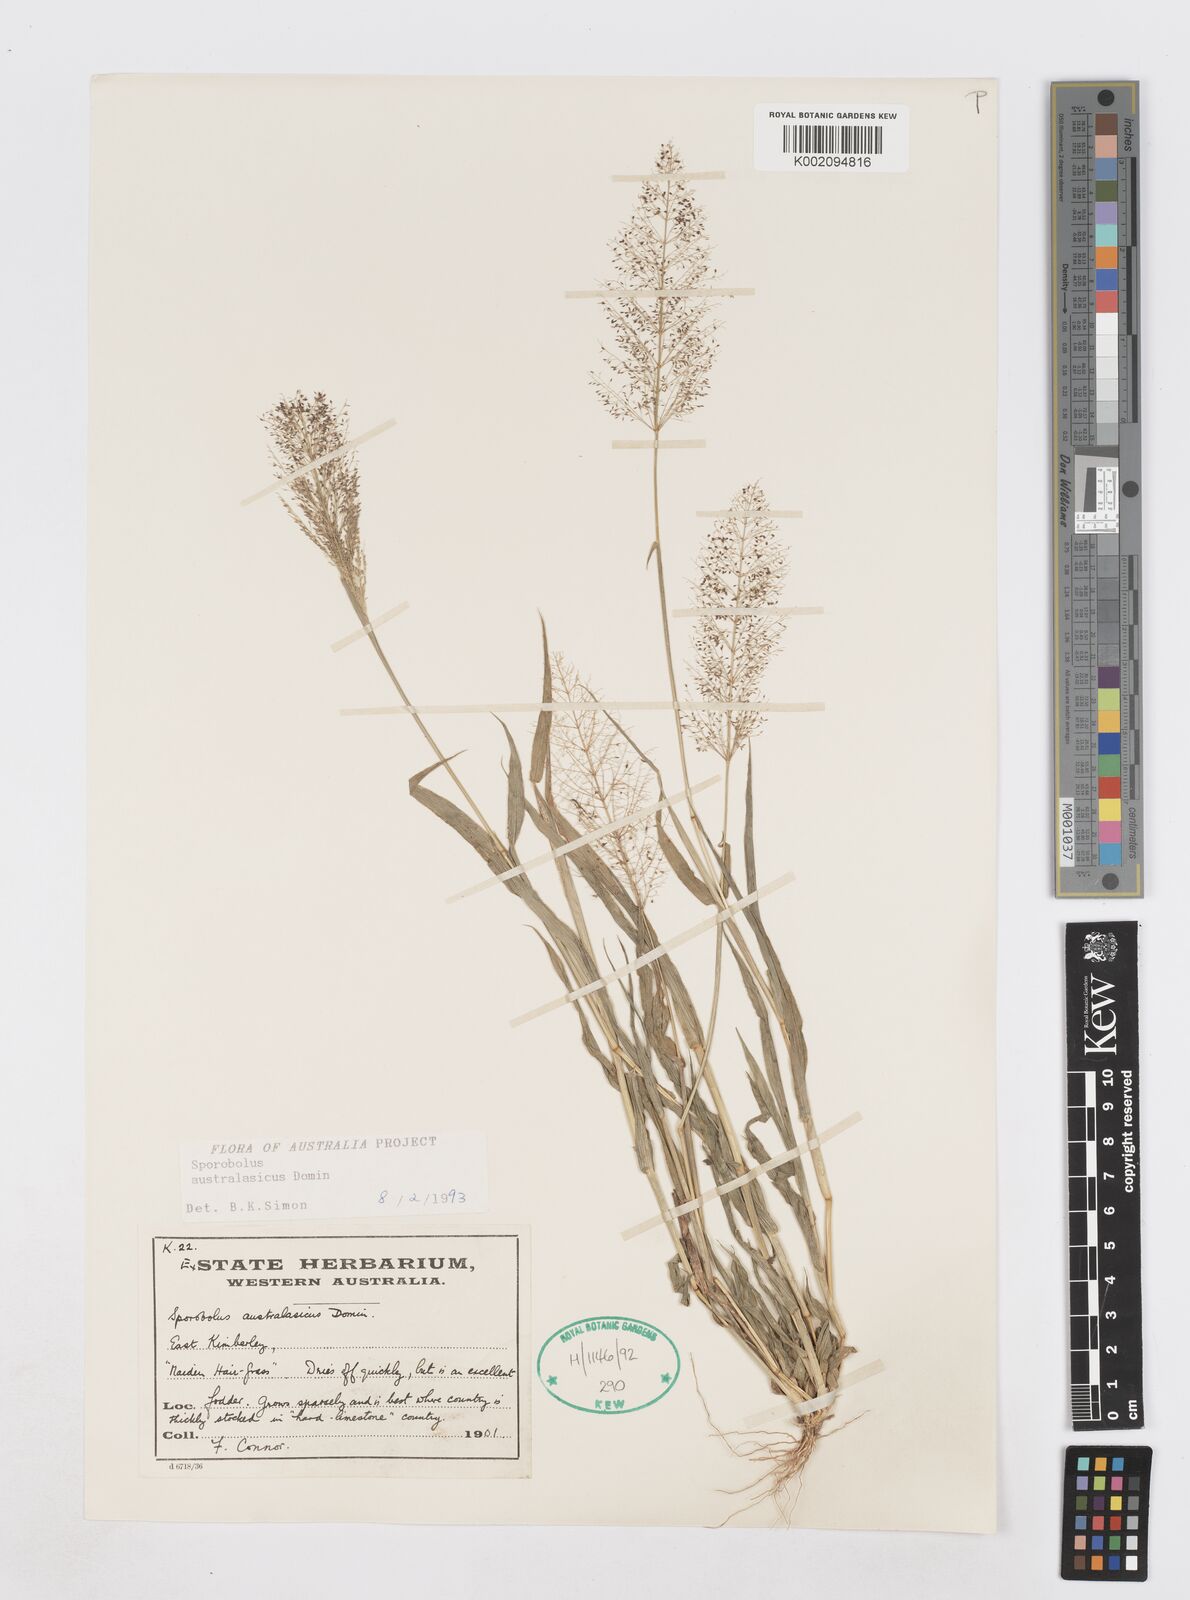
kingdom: Plantae
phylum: Tracheophyta
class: Liliopsida
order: Poales
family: Poaceae
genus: Sporobolus
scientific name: Sporobolus australasicus
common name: Australian dropseed
